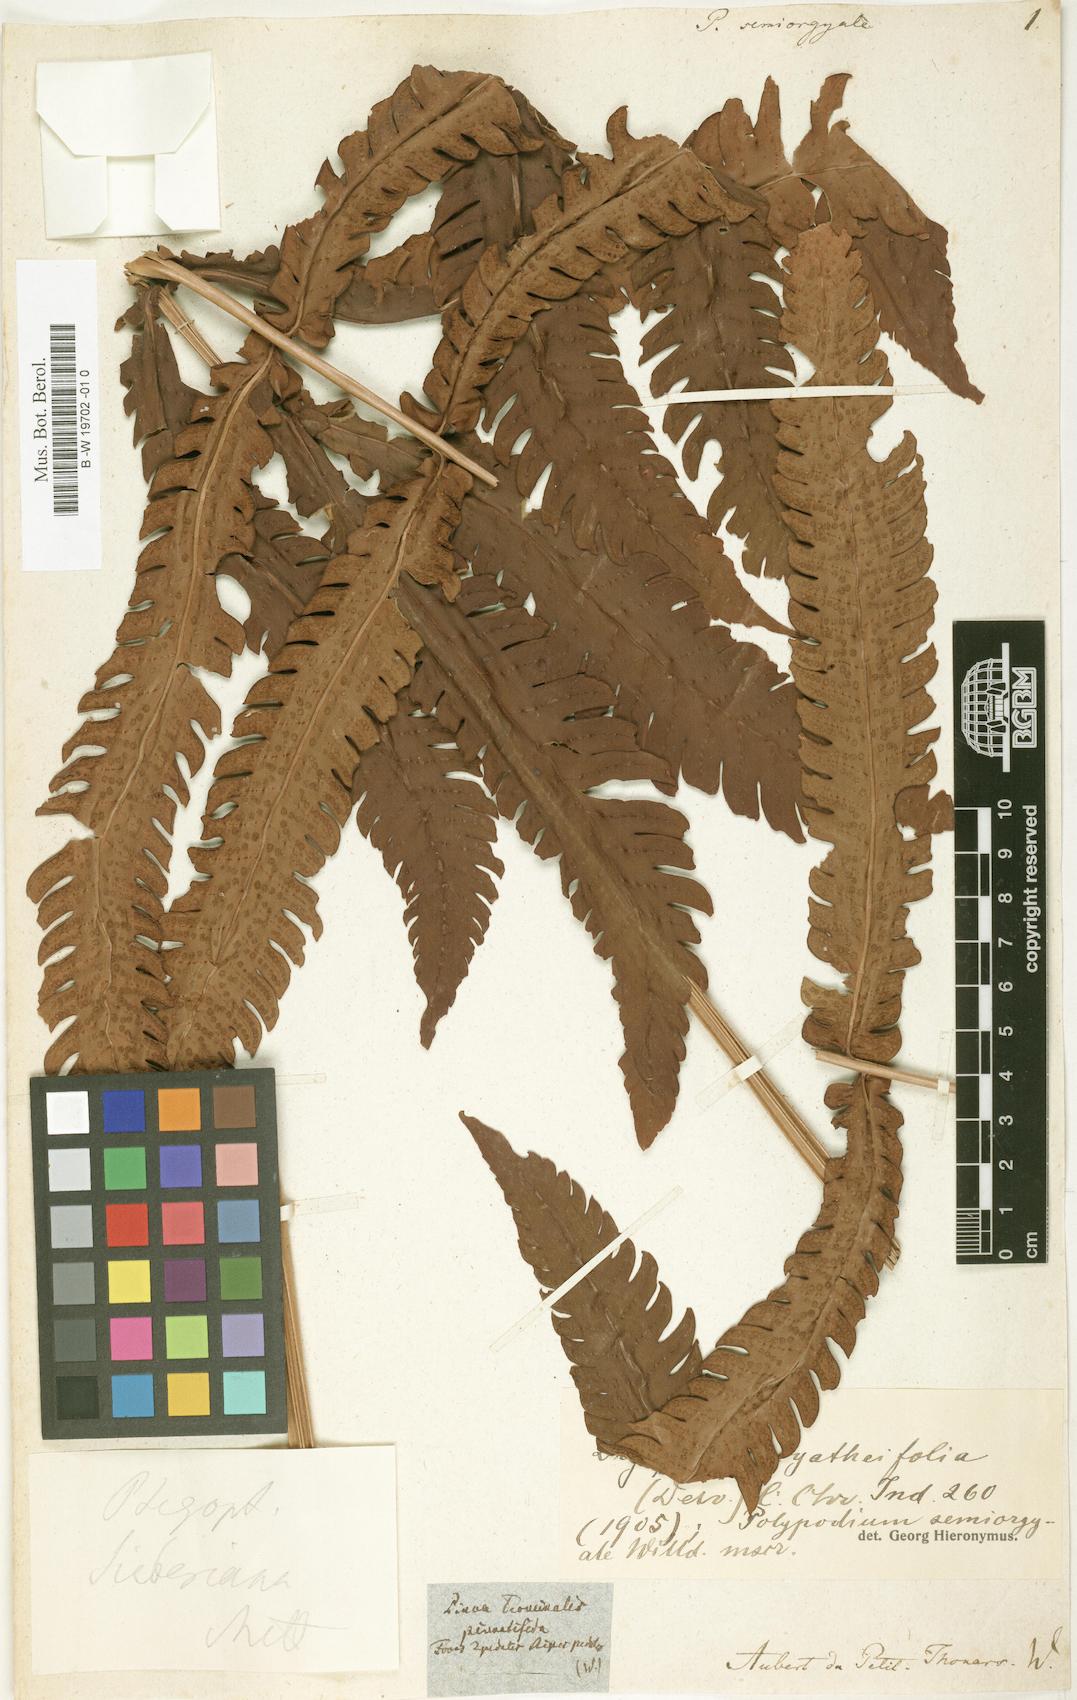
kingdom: Plantae
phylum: Tracheophyta
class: Polypodiopsida
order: Polypodiales
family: Polypodiaceae
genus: Polypodium
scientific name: Polypodium
